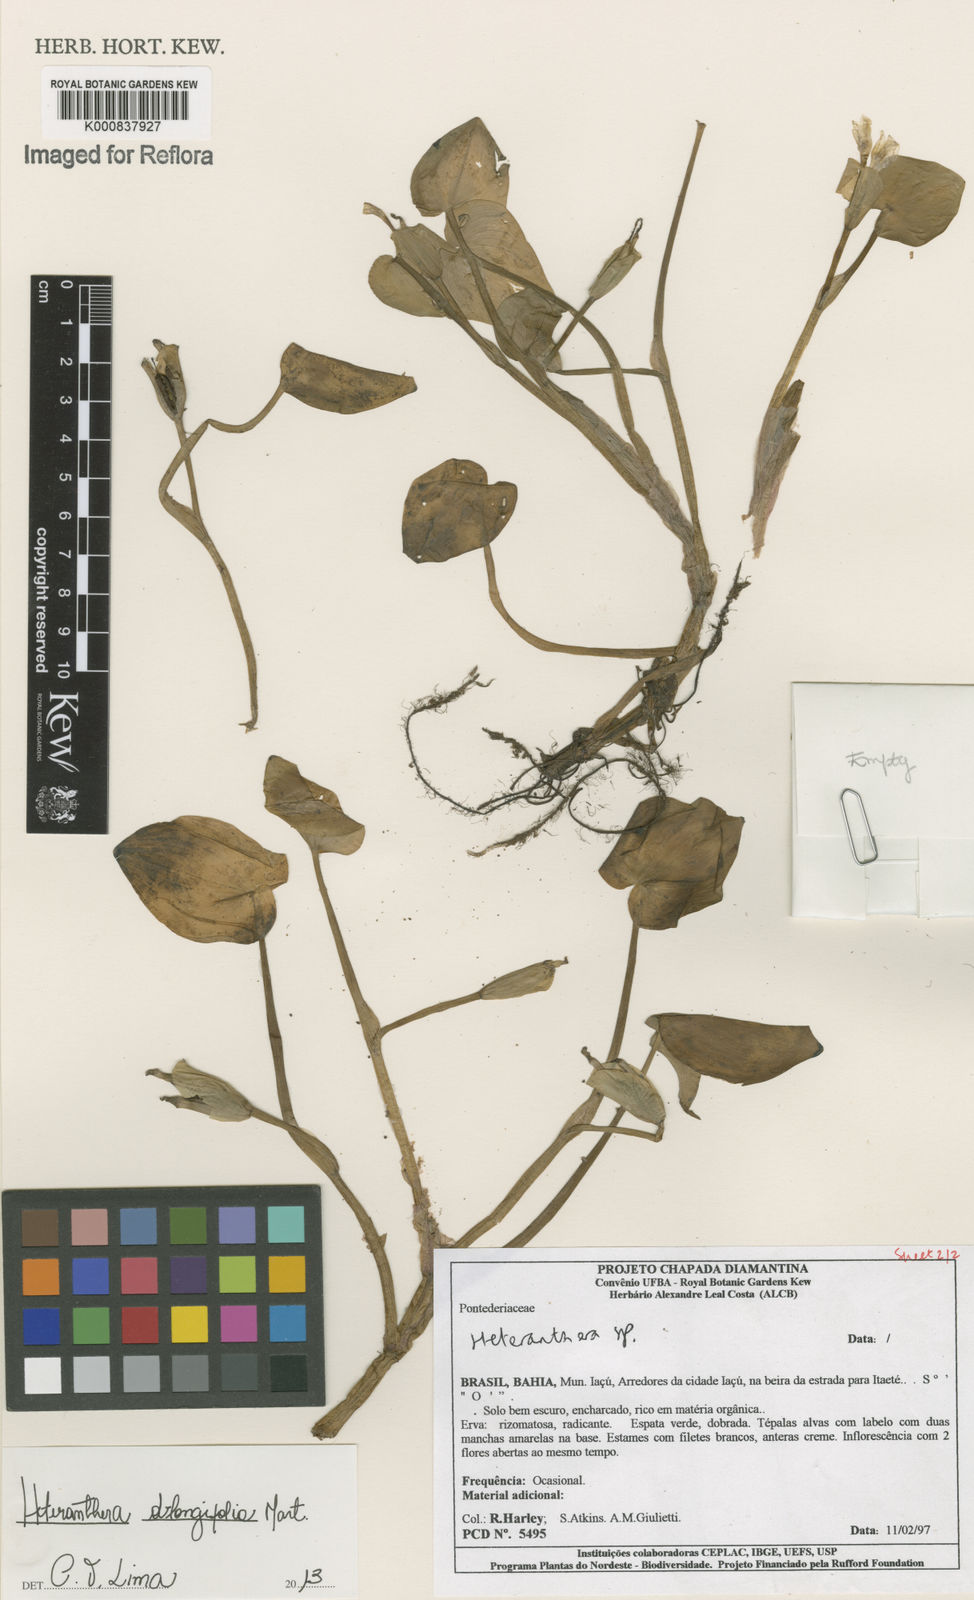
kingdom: Plantae
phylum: Tracheophyta
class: Liliopsida
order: Commelinales
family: Pontederiaceae
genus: Heteranthera
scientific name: Heteranthera oblongifolia
